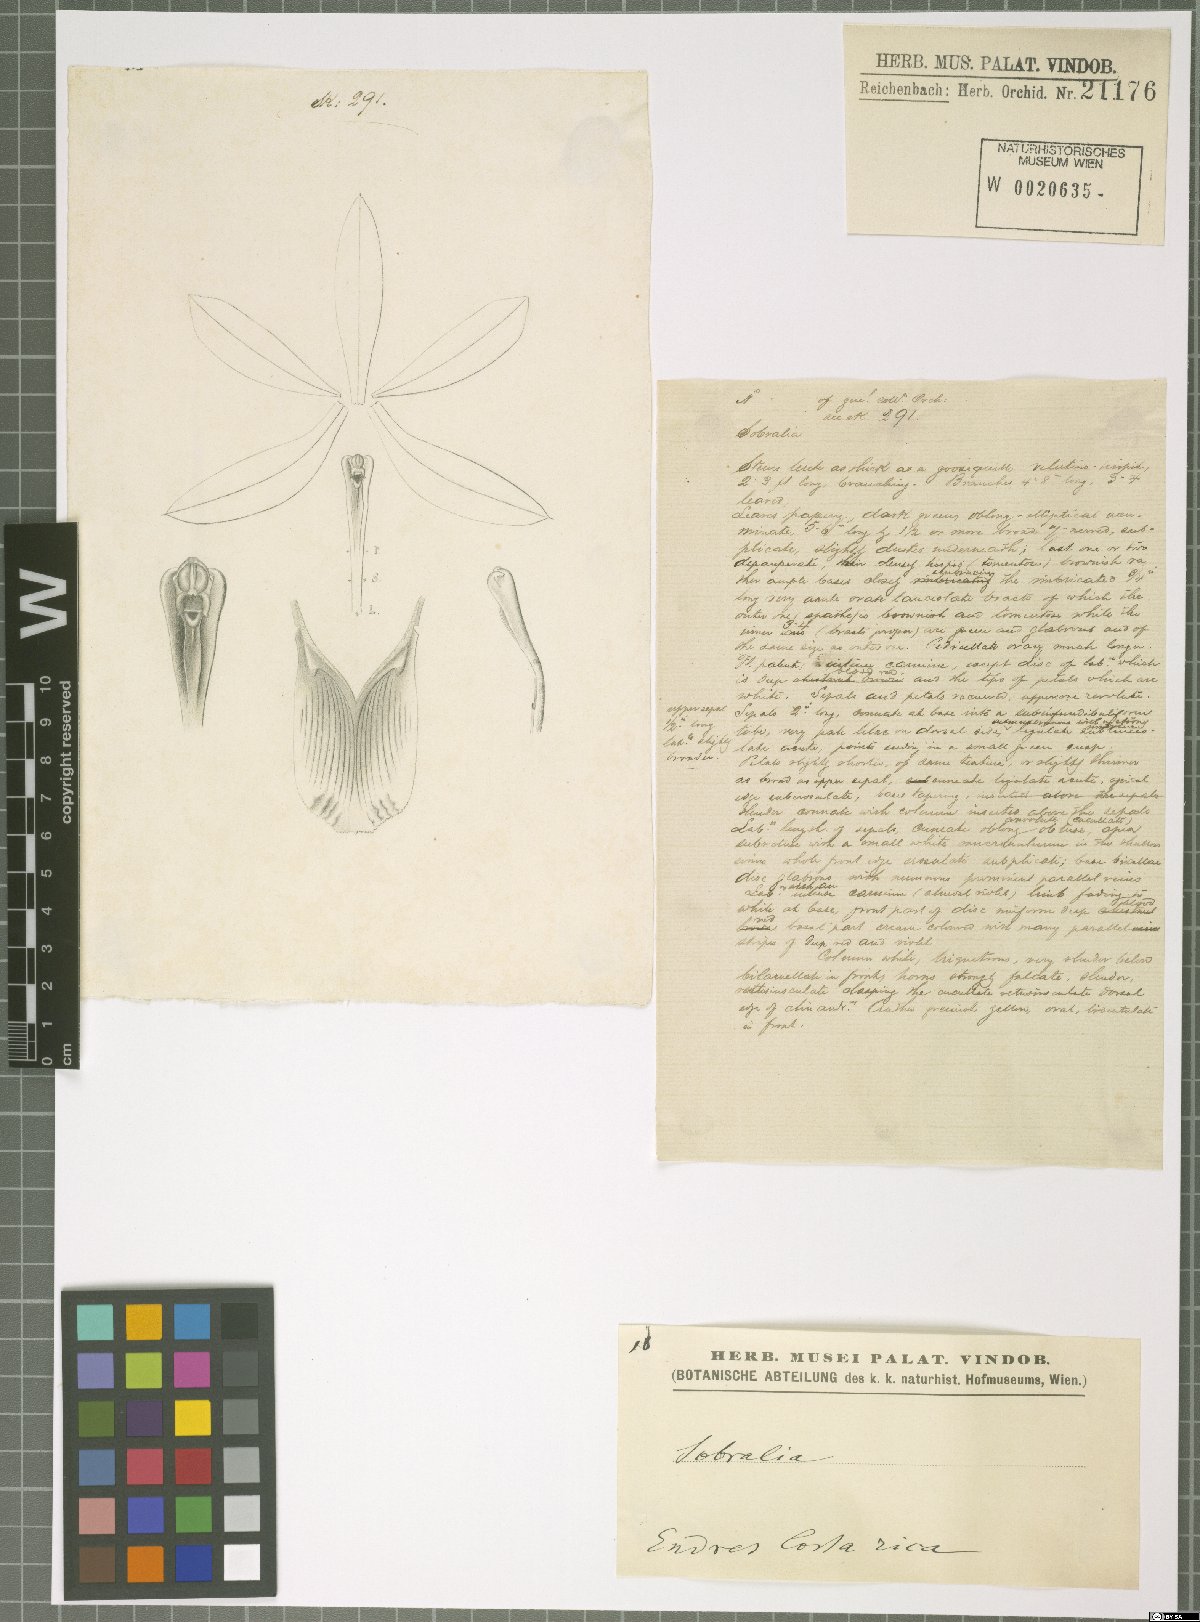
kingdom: Plantae
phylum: Tracheophyta
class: Liliopsida
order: Asparagales
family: Orchidaceae
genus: Sobralia
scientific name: Sobralia
